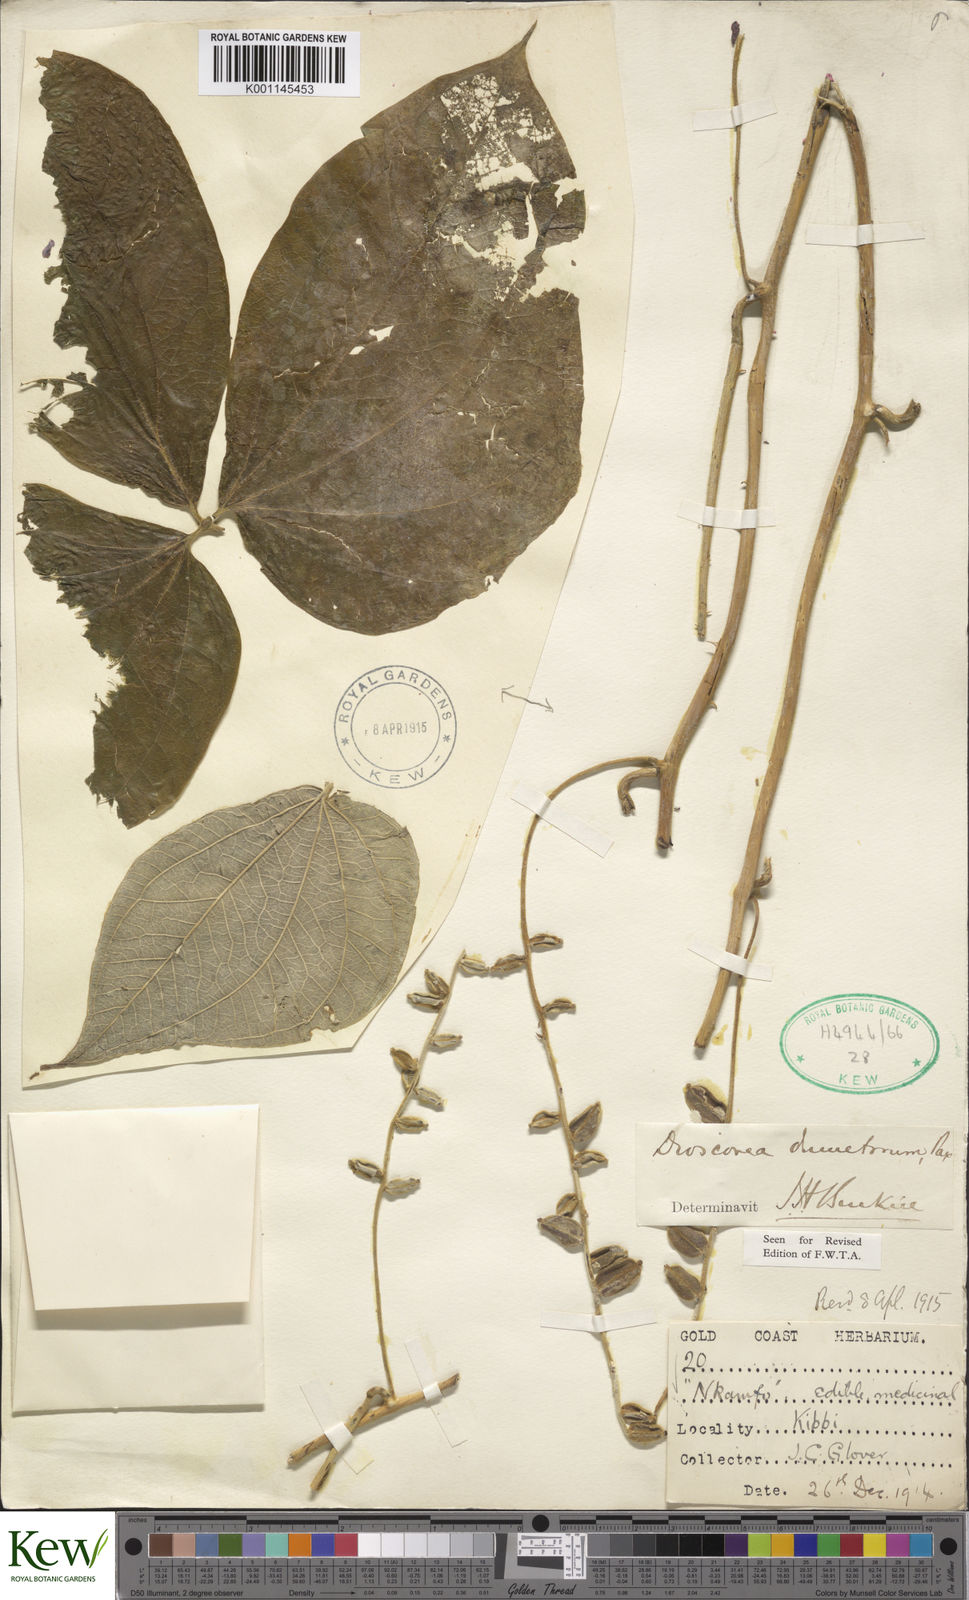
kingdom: Plantae
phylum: Tracheophyta
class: Liliopsida
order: Dioscoreales
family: Dioscoreaceae
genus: Dioscorea
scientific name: Dioscorea dumetorum
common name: African bitter yam
